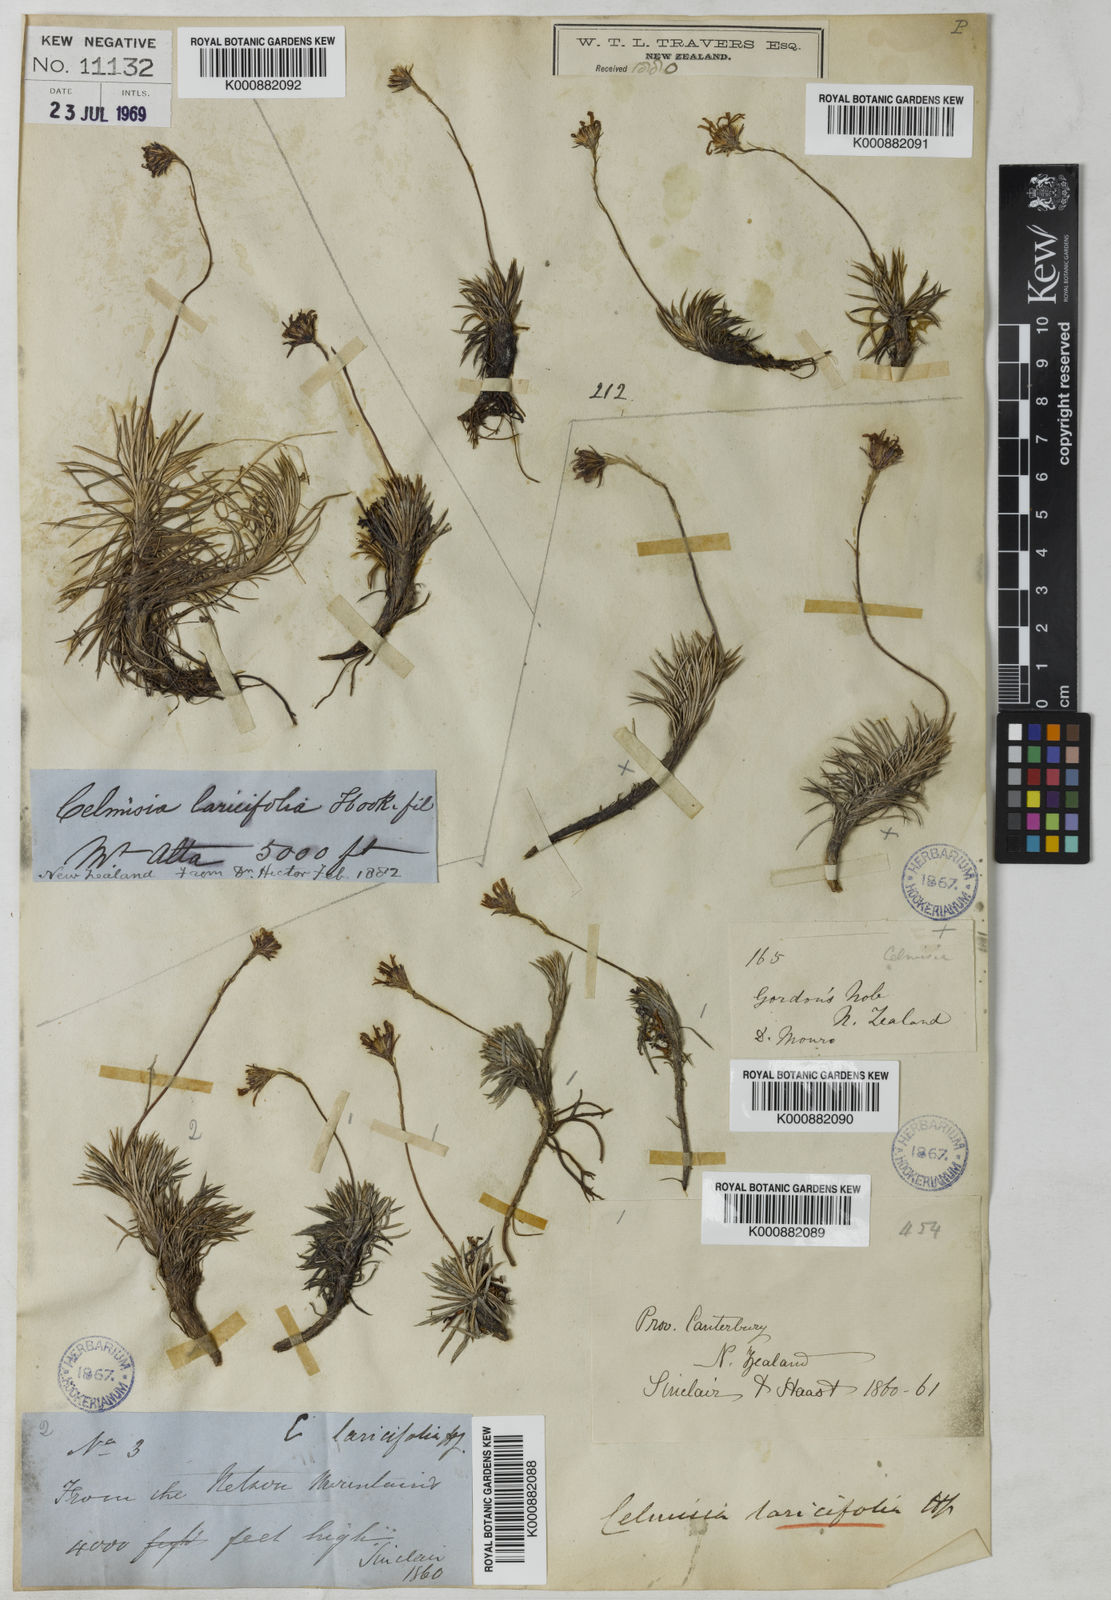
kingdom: Plantae
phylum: Tracheophyta
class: Magnoliopsida
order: Asterales
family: Asteraceae
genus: Celmisia
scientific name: Celmisia laricifolia
